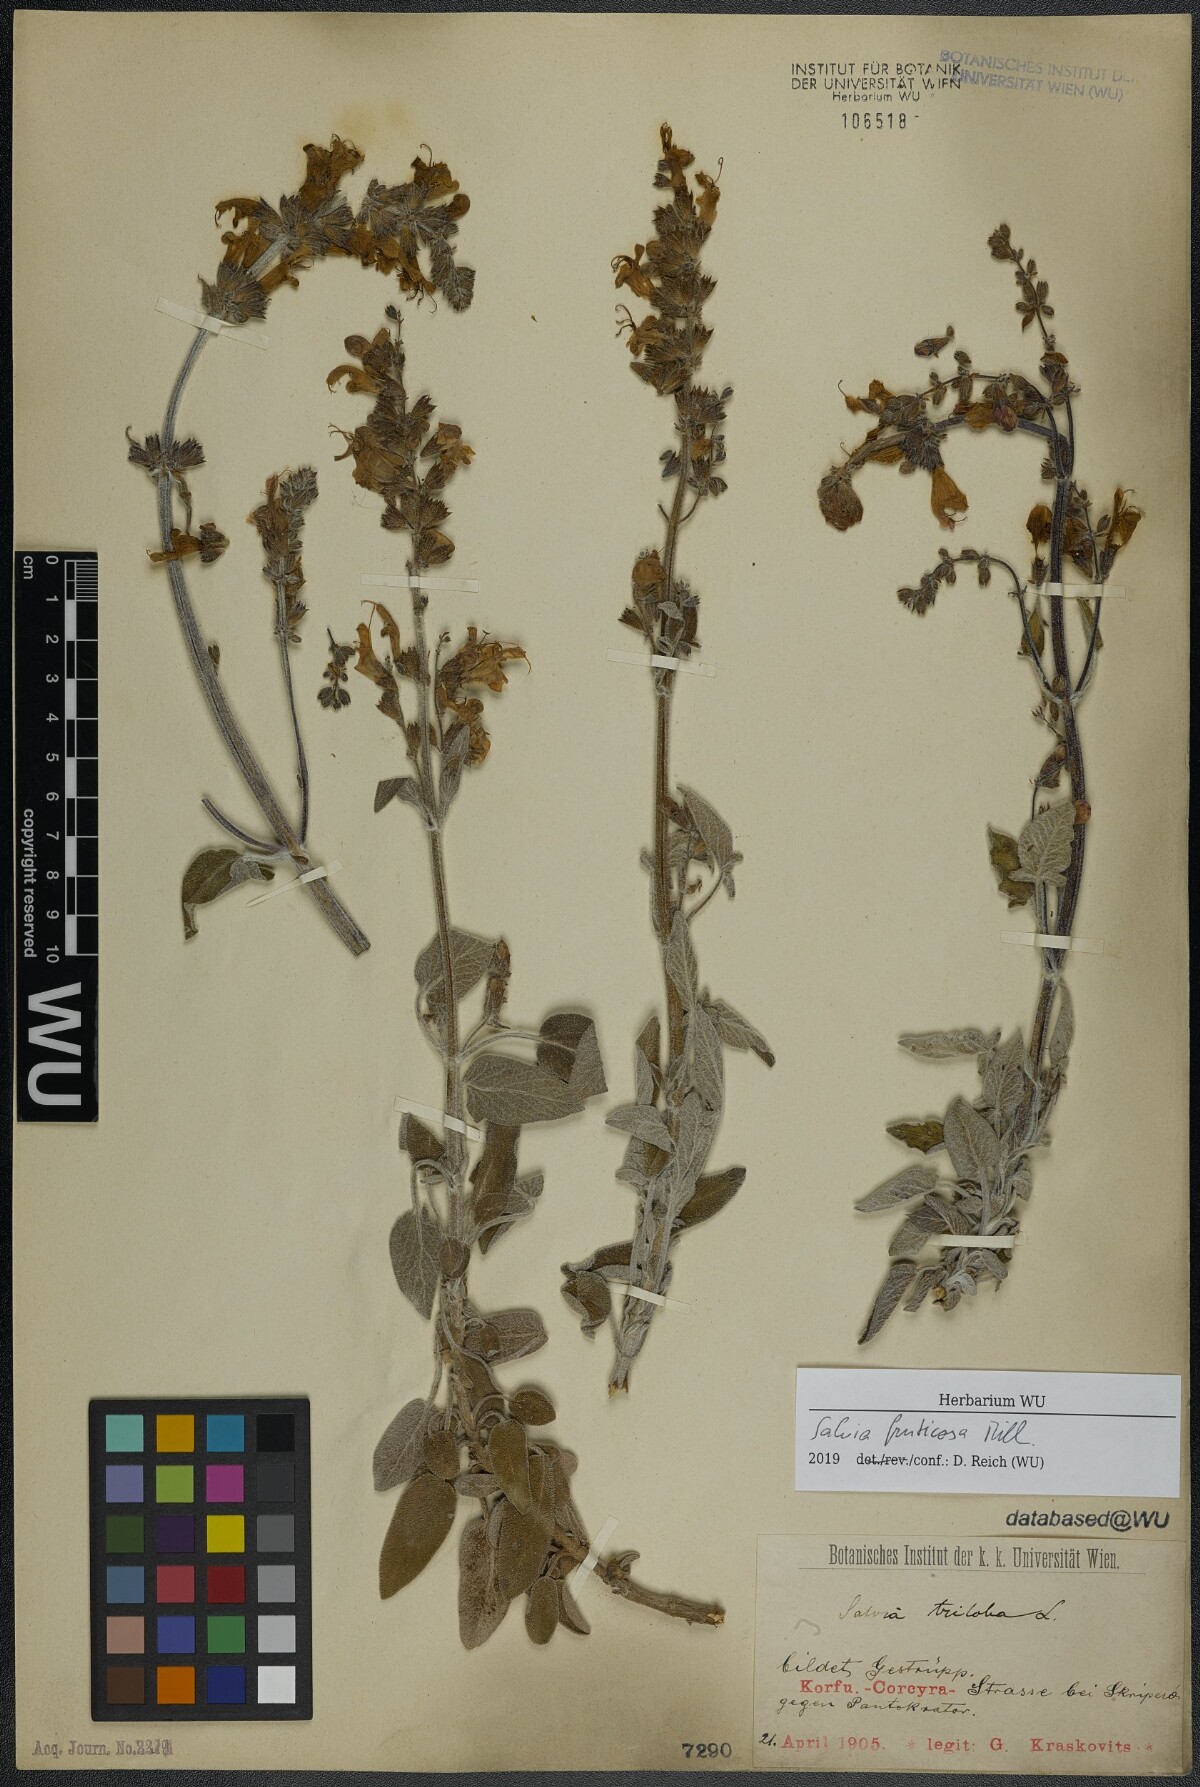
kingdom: Plantae
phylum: Tracheophyta
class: Magnoliopsida
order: Lamiales
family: Lamiaceae
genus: Salvia
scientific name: Salvia fruticosa
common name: Greek sage
